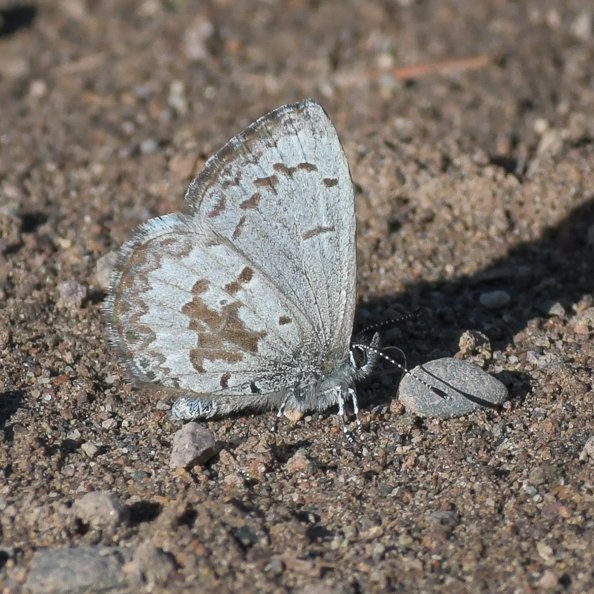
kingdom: Animalia
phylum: Arthropoda
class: Insecta
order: Lepidoptera
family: Lycaenidae
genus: Celastrina
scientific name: Celastrina lucia
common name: Northern Spring Azure
